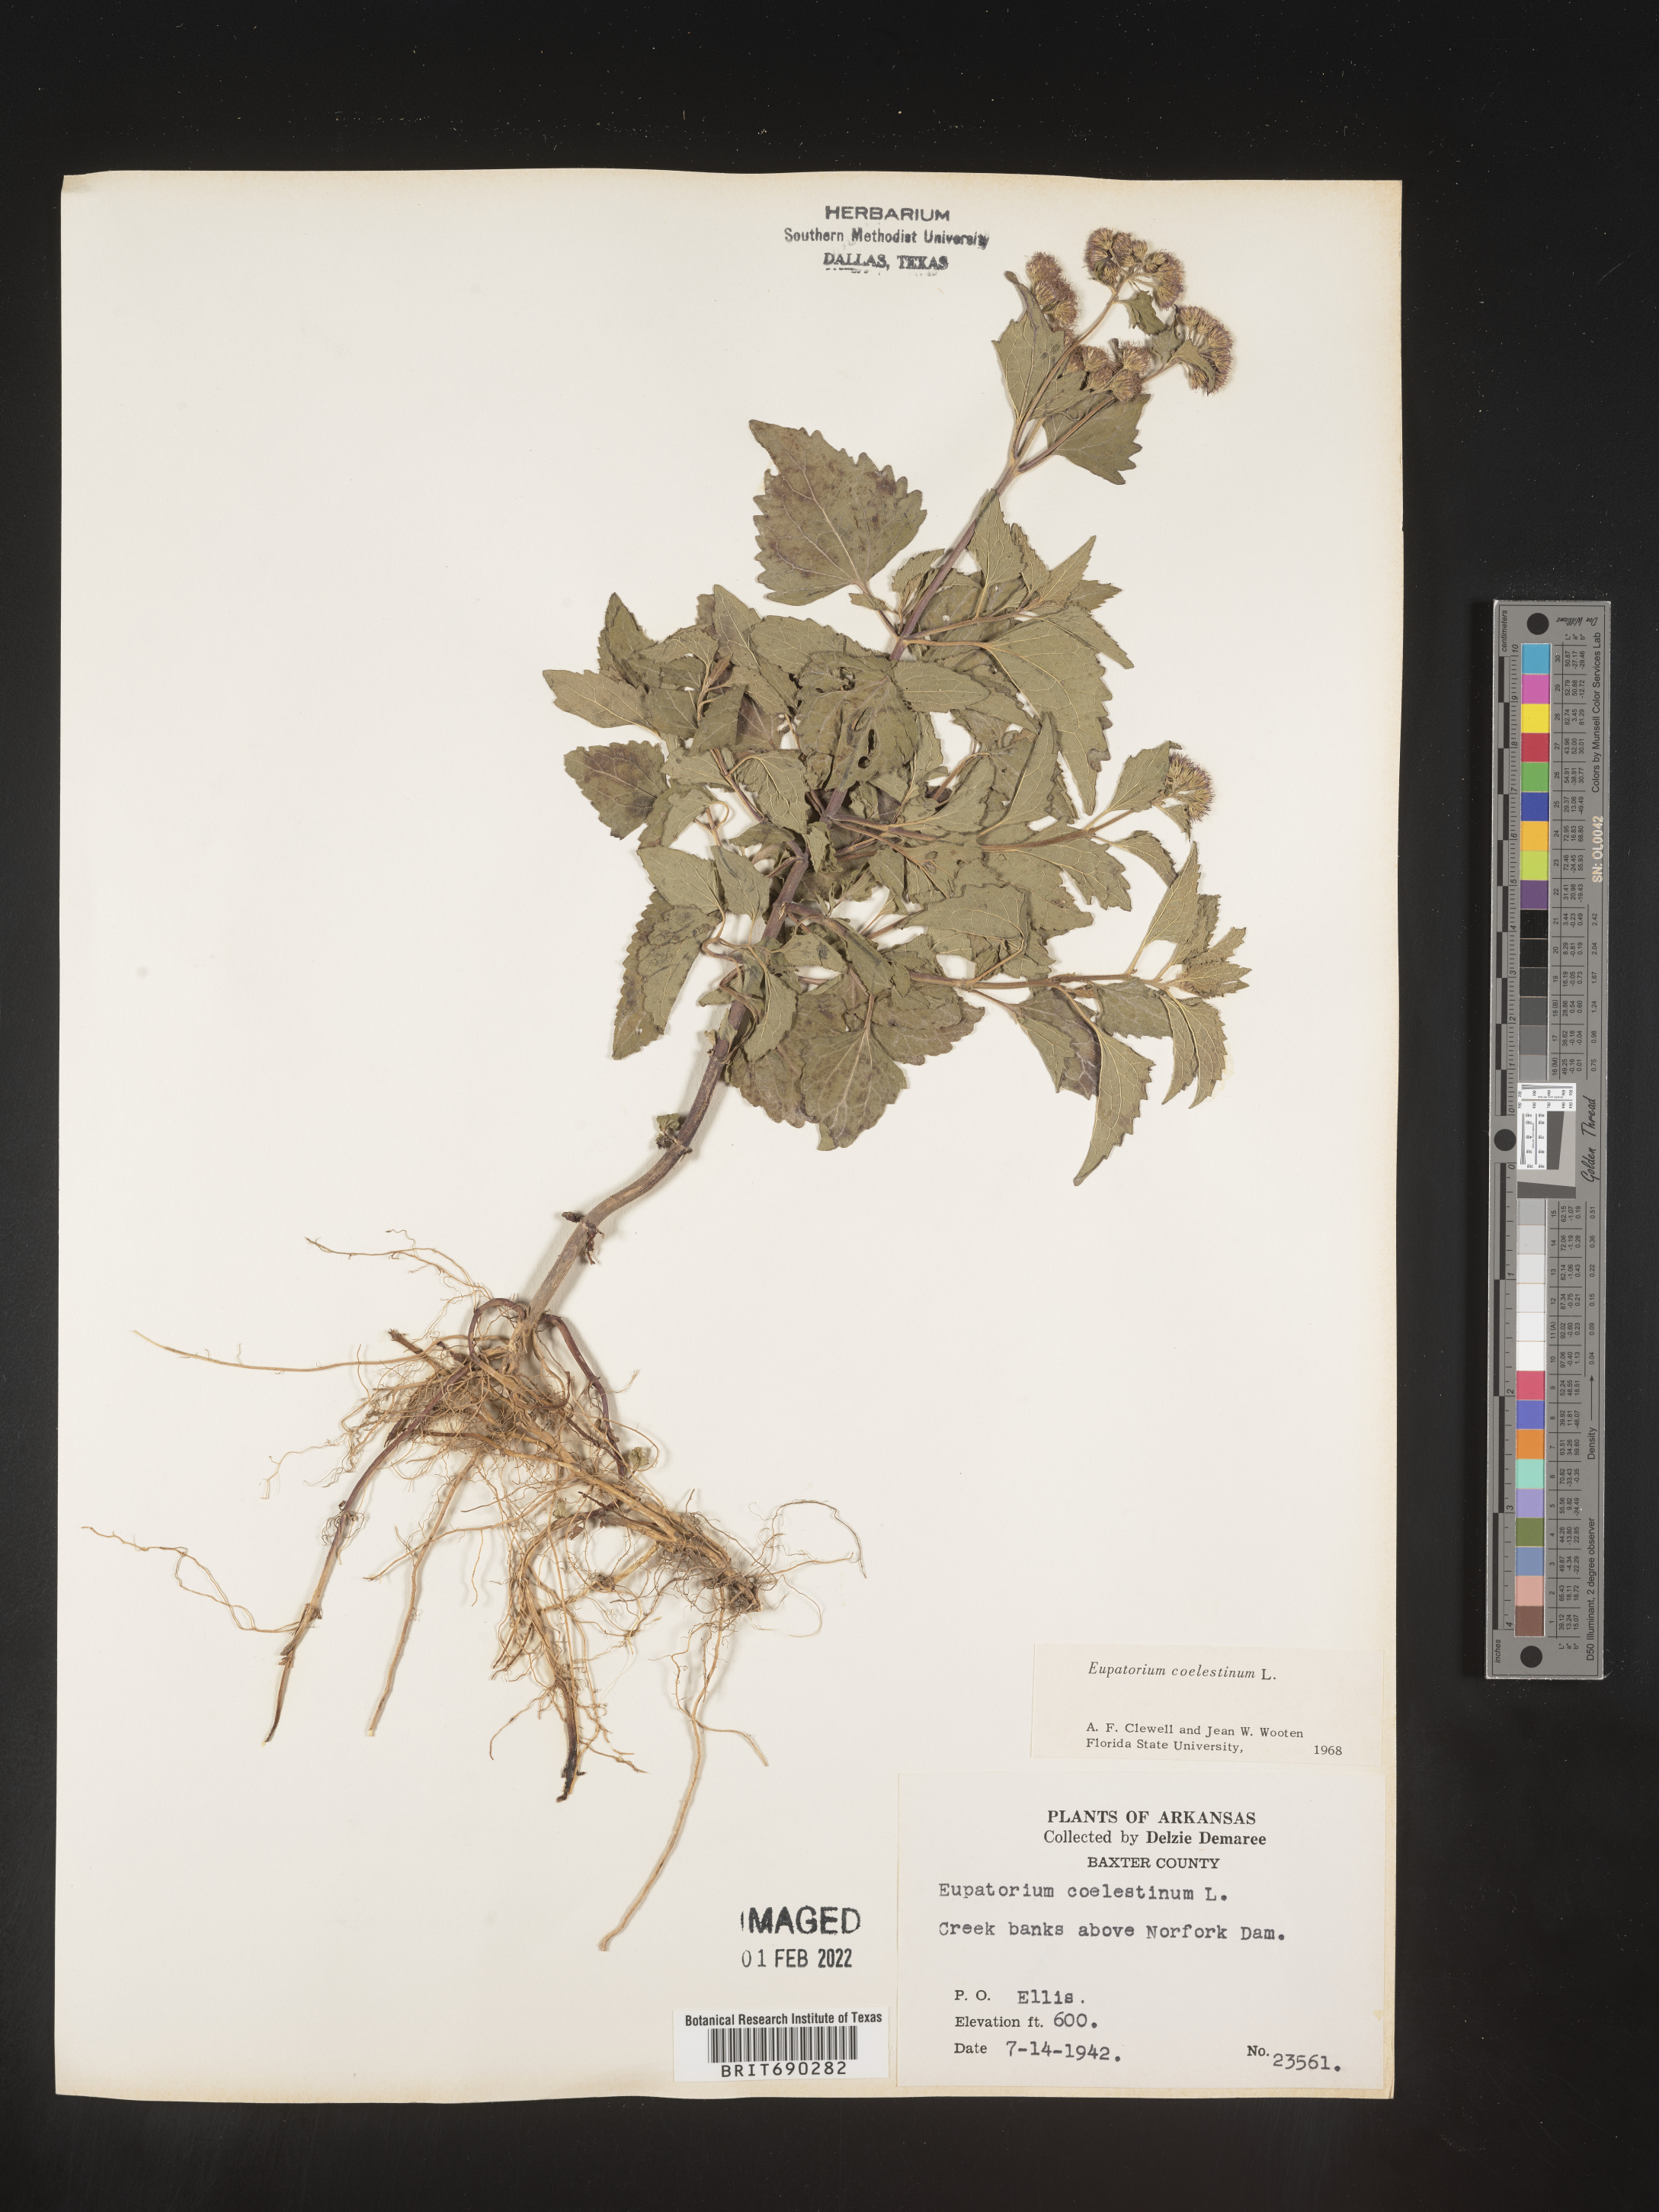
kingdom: Plantae
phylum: Tracheophyta
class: Magnoliopsida
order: Asterales
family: Asteraceae
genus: Conoclinium
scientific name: Conoclinium coelestinum
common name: Blue mistflower
